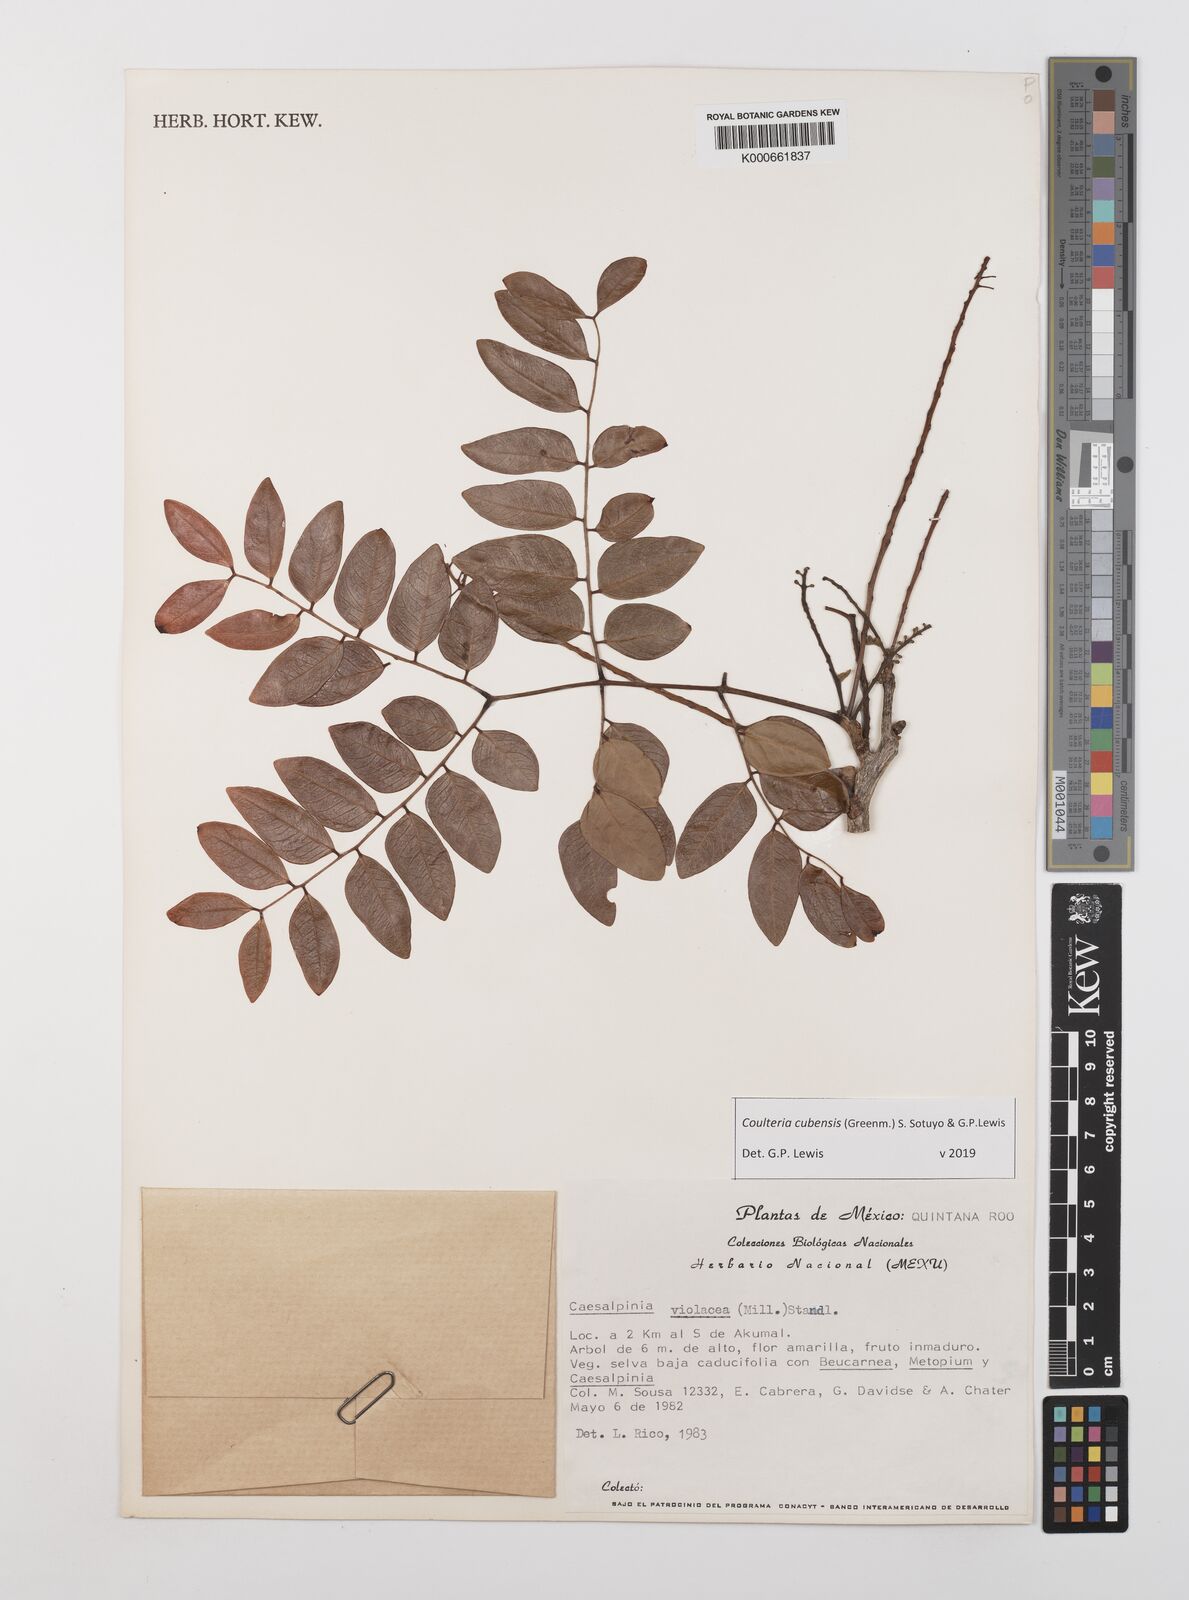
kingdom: Plantae
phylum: Tracheophyta
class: Magnoliopsida
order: Fabales
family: Fabaceae
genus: Coulteria
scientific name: Coulteria cubensis
